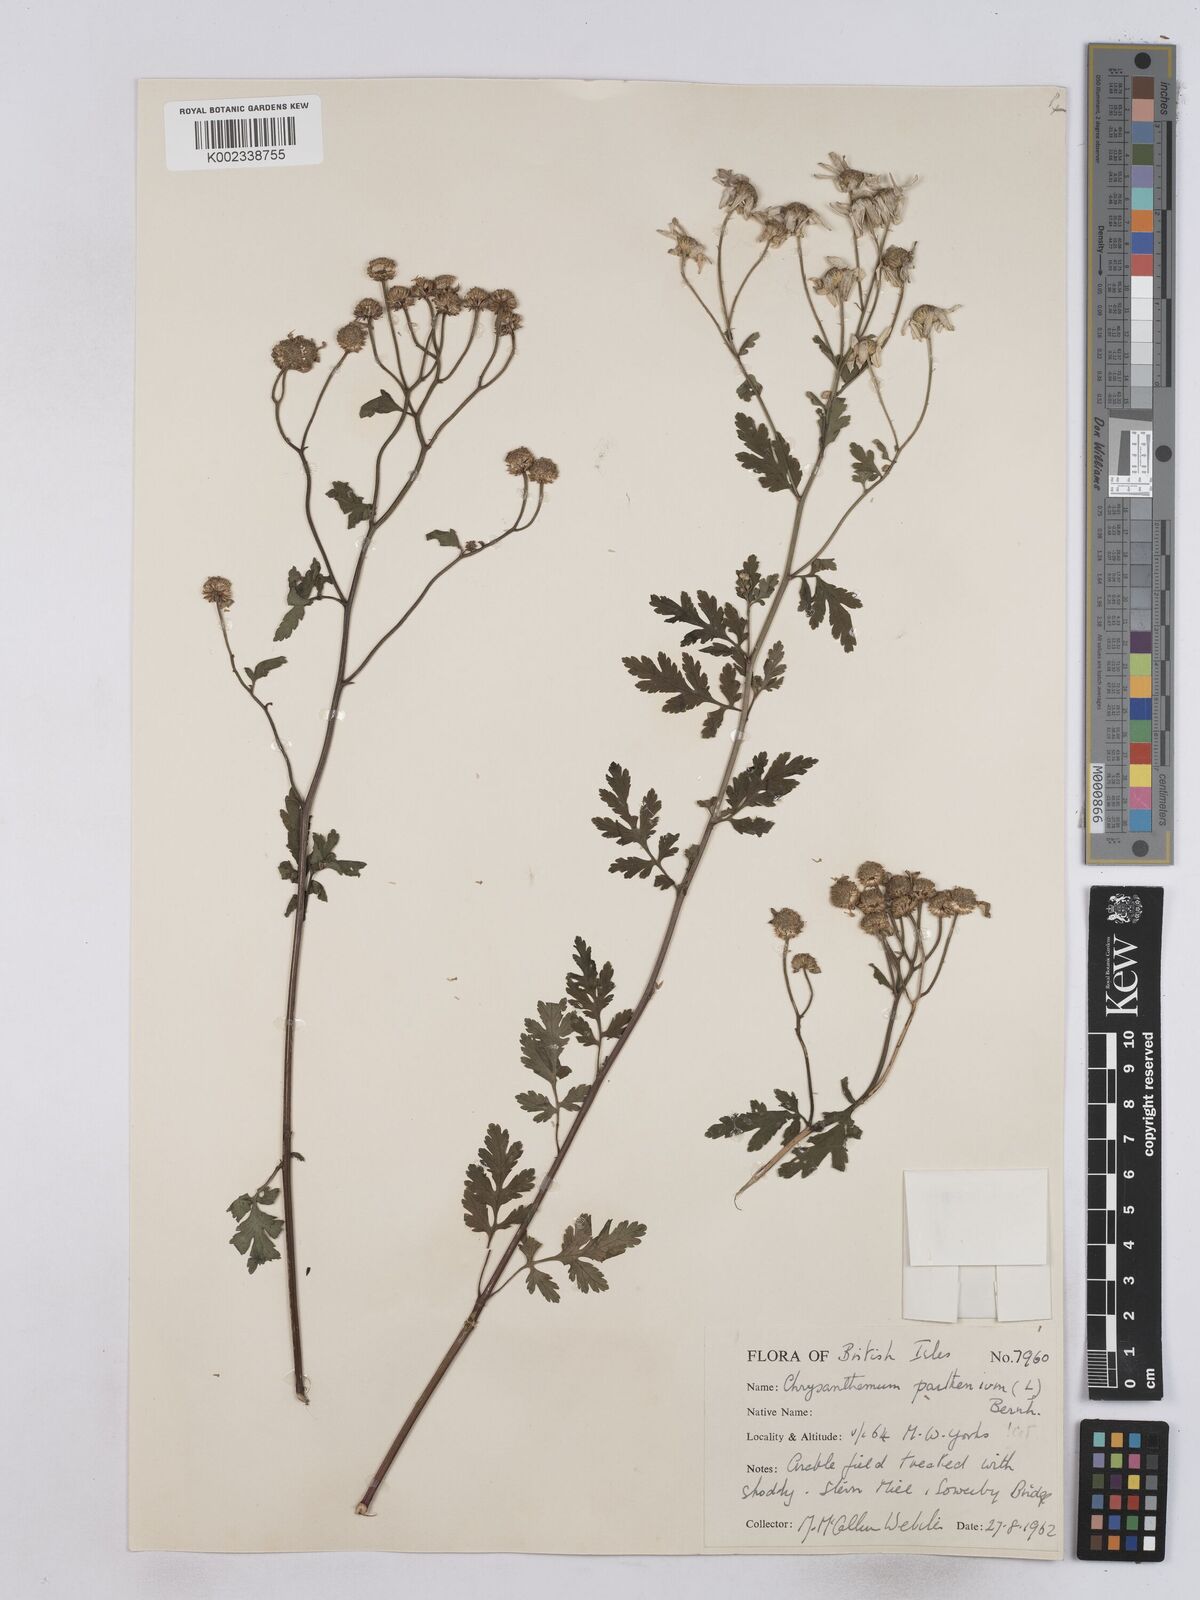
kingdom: Plantae
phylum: Tracheophyta
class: Magnoliopsida
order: Asterales
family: Asteraceae
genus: Tanacetum
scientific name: Tanacetum parthenium
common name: Feverfew
